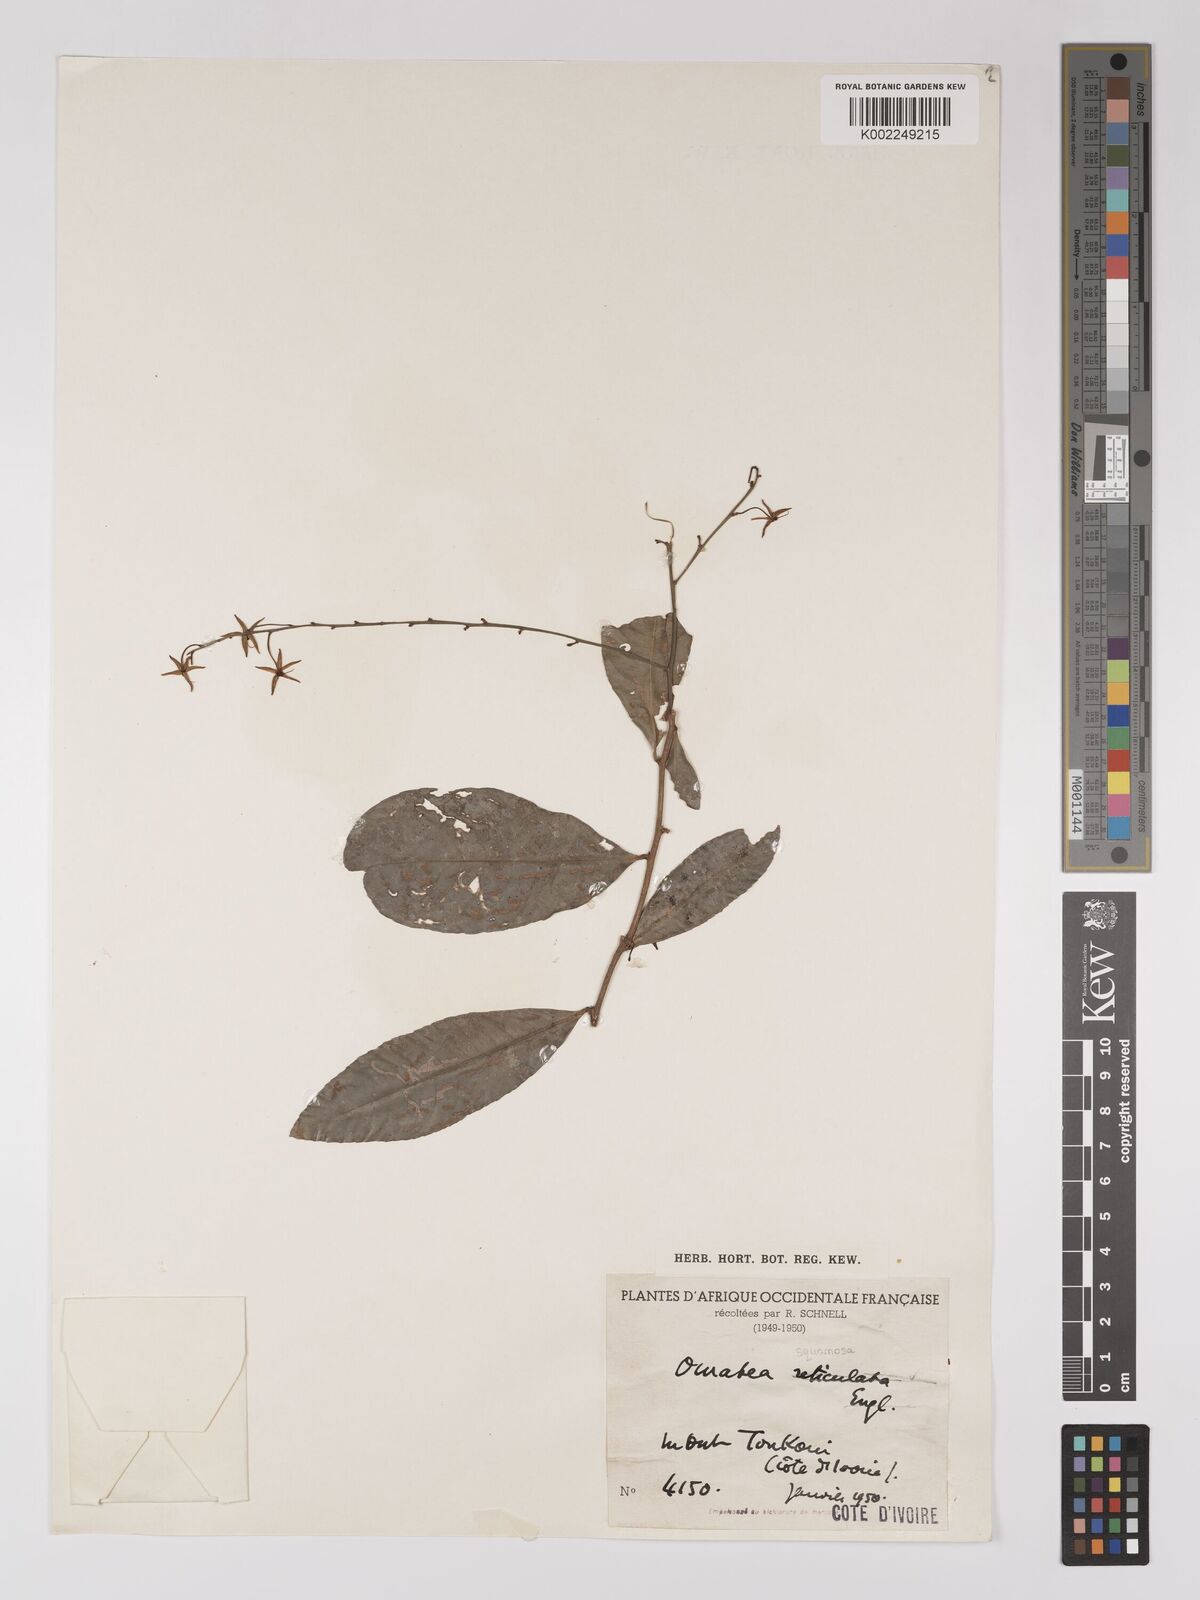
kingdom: Plantae
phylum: Tracheophyta
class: Magnoliopsida
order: Malpighiales
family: Ochnaceae
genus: Campylospermum
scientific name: Campylospermum squamosum
